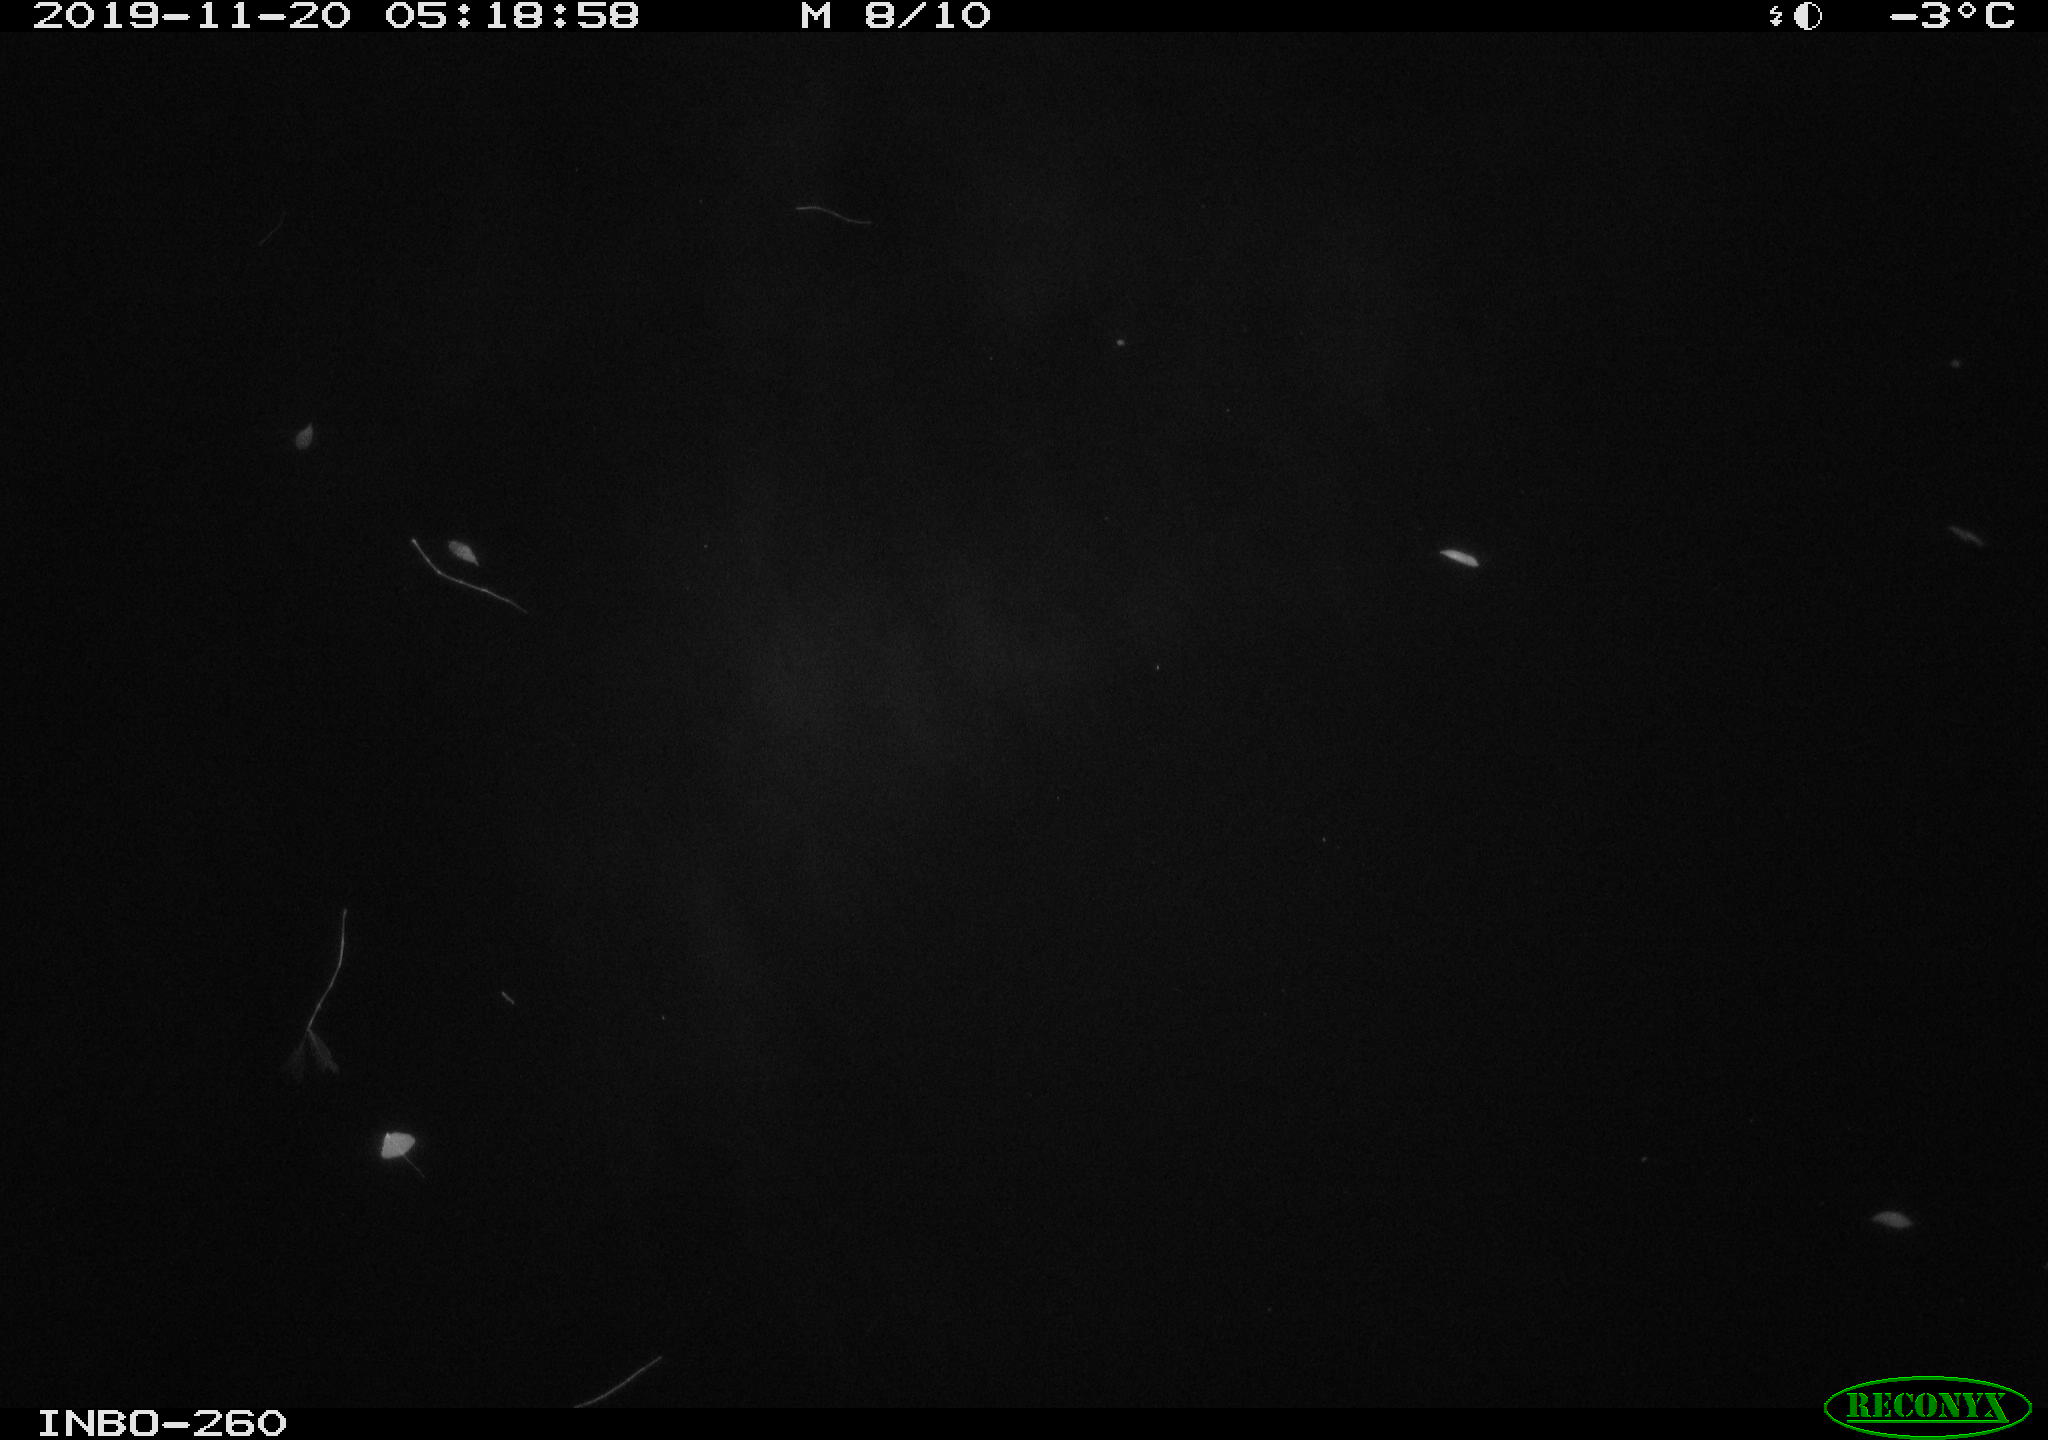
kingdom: Animalia
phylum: Chordata
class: Aves
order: Anseriformes
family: Anatidae
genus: Anas
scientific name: Anas platyrhynchos
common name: Mallard
